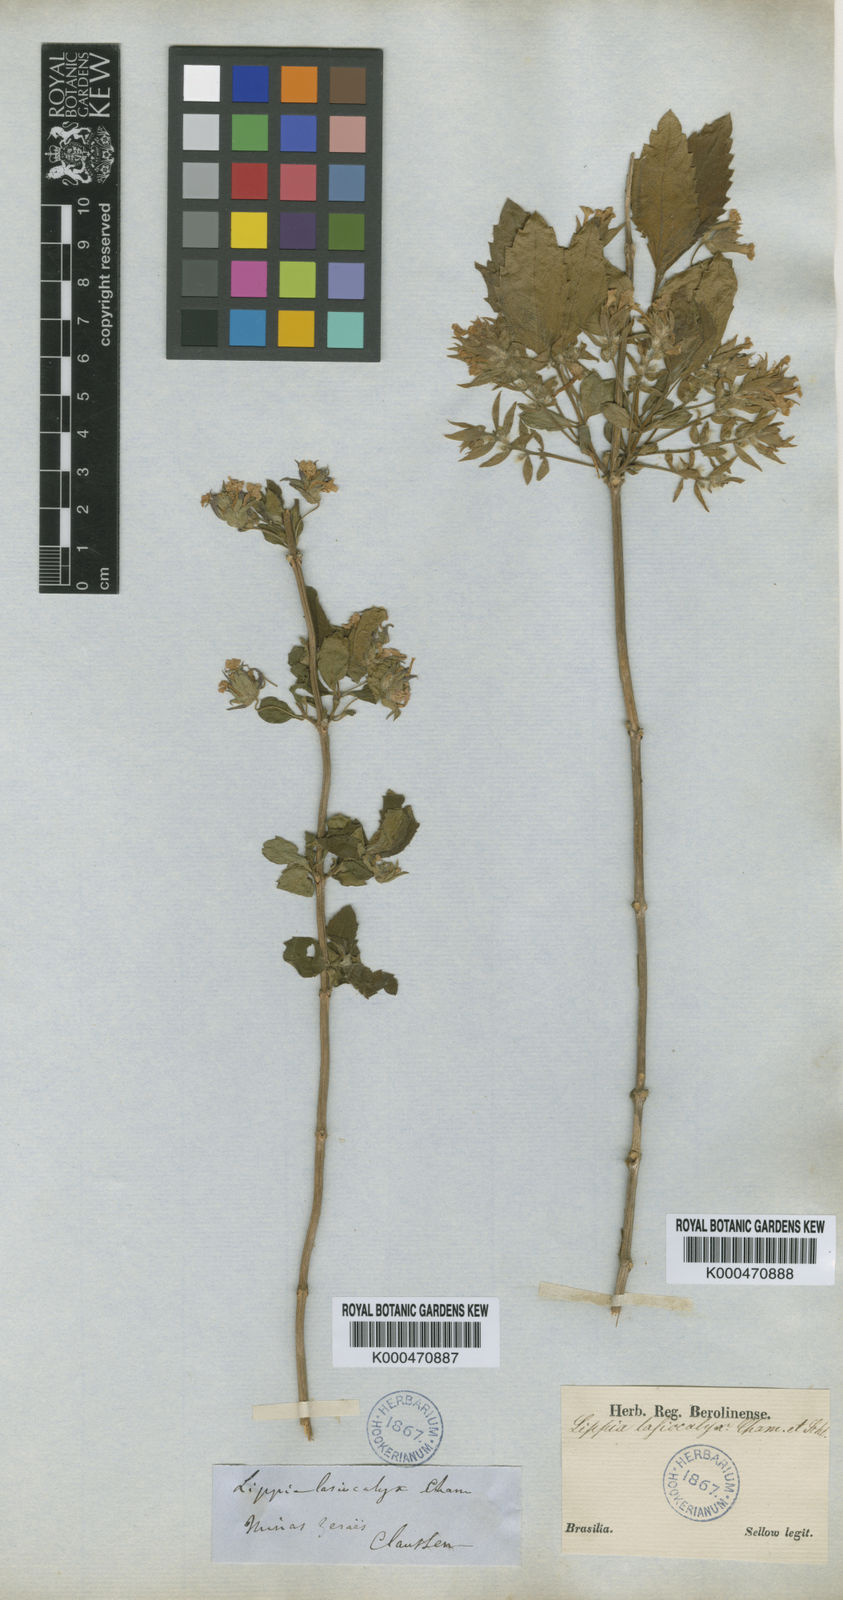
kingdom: Plantae
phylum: Tracheophyta
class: Magnoliopsida
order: Lamiales
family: Verbenaceae
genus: Lippia
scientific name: Lippia lasiocalycina
